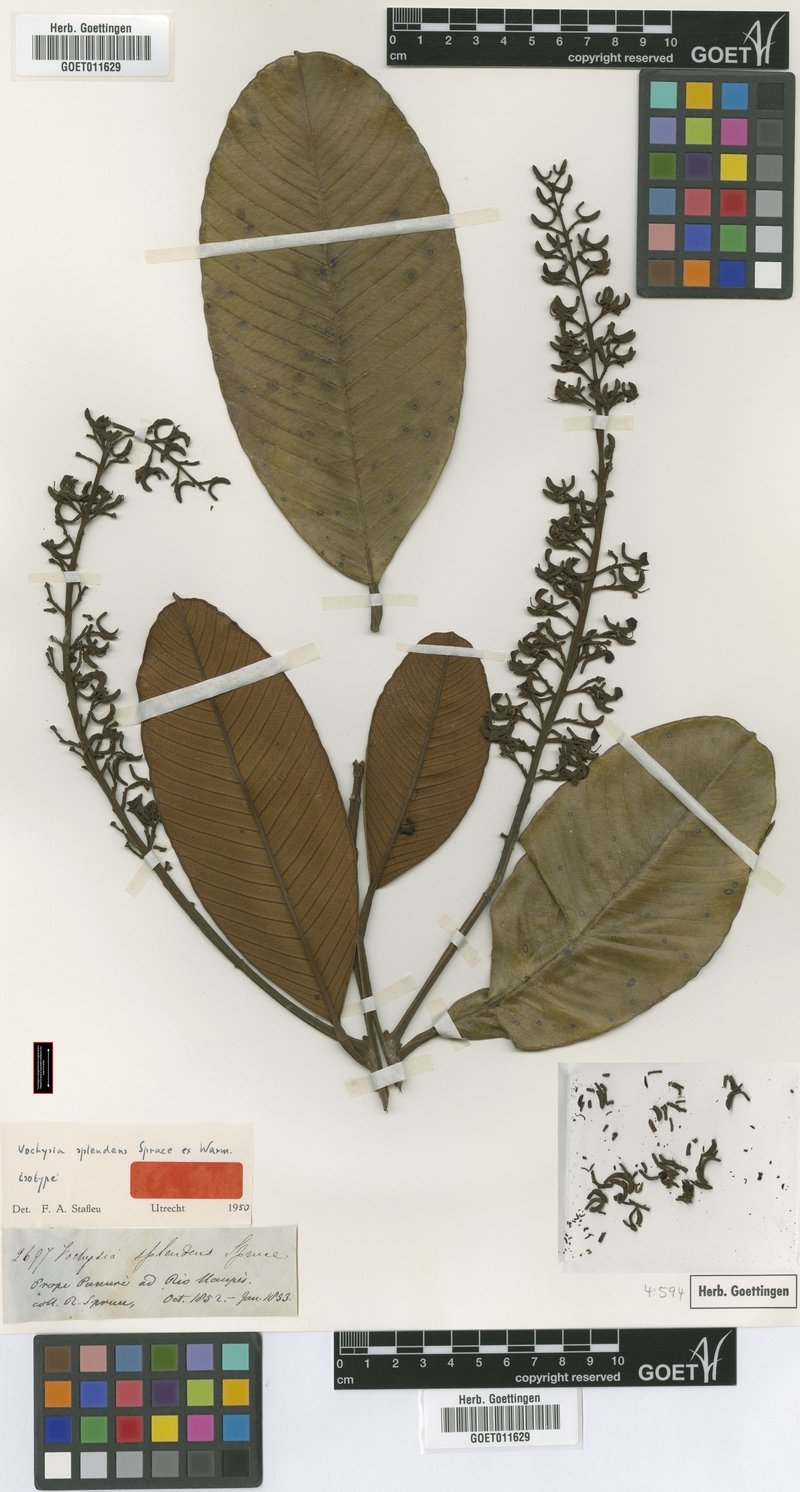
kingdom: Plantae
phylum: Tracheophyta
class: Magnoliopsida
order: Myrtales
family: Vochysiaceae
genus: Vochysia
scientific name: Vochysia splendens
